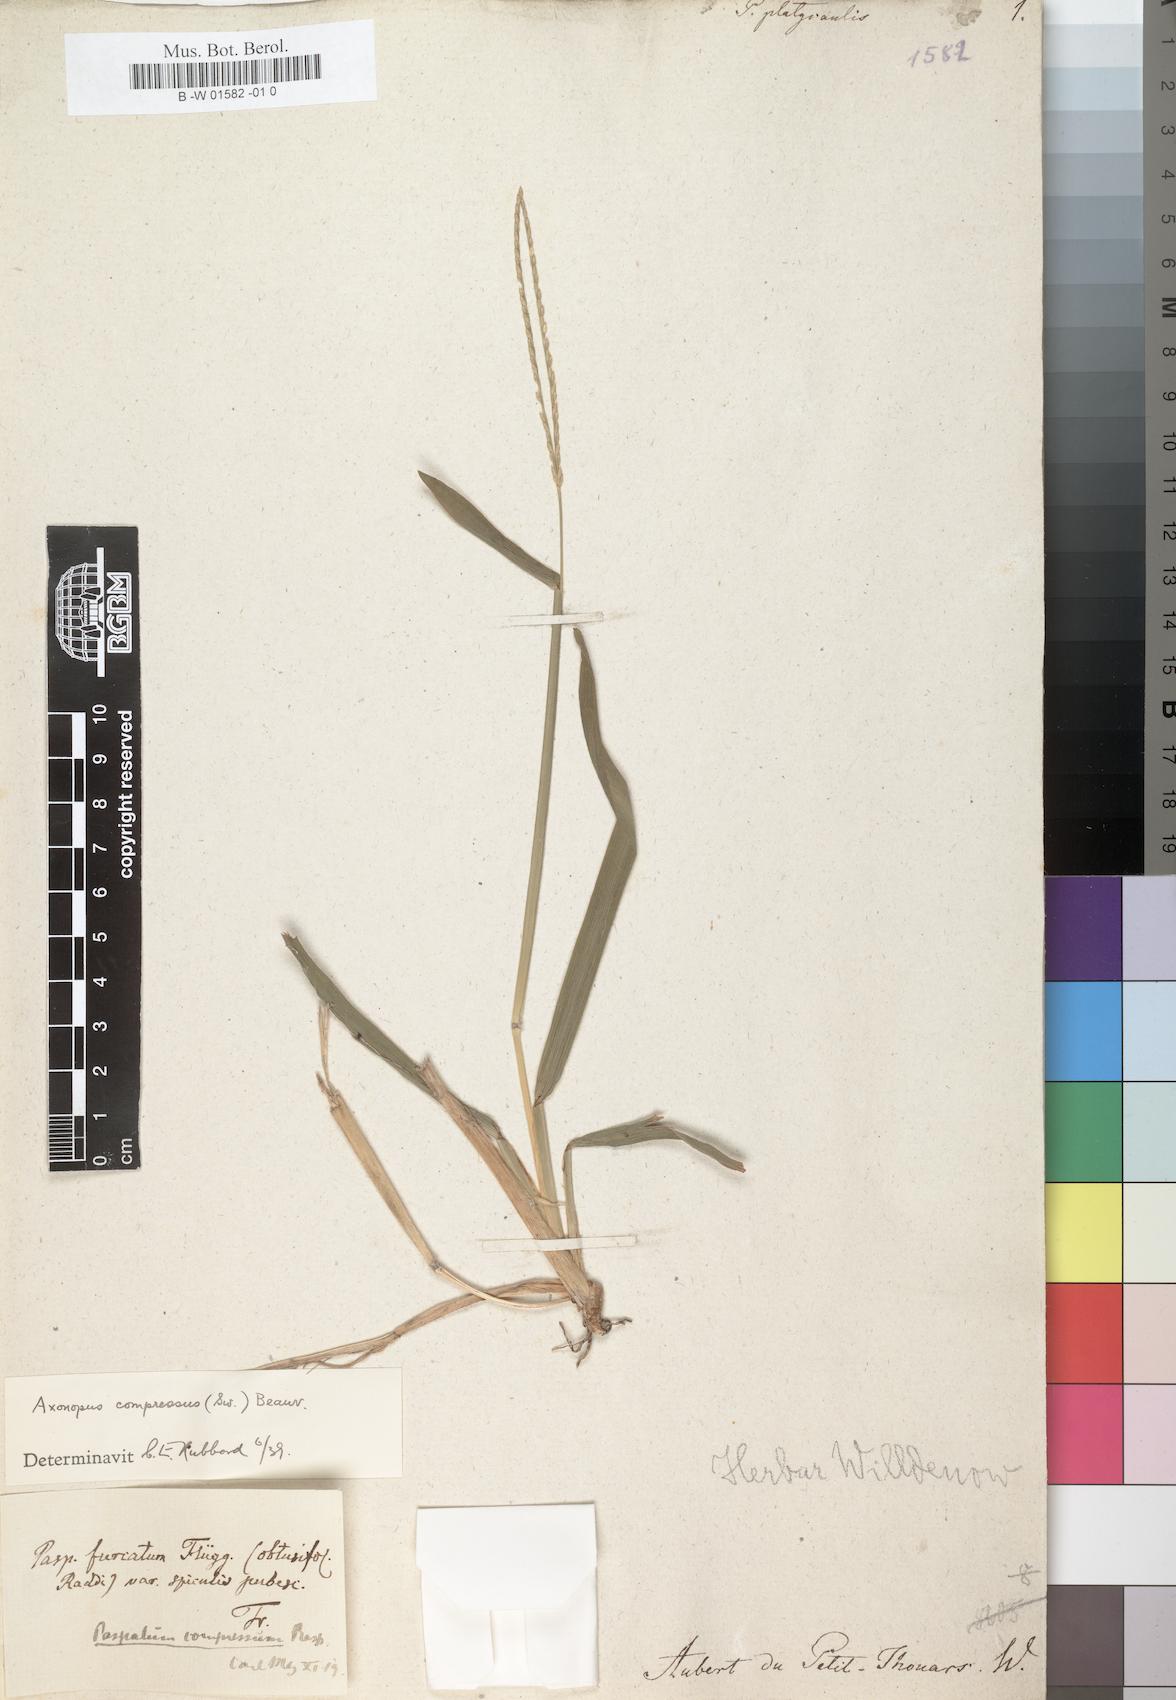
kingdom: Plantae
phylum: Tracheophyta
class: Liliopsida
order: Poales
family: Poaceae
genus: Axonopus
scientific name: Axonopus furcatus
